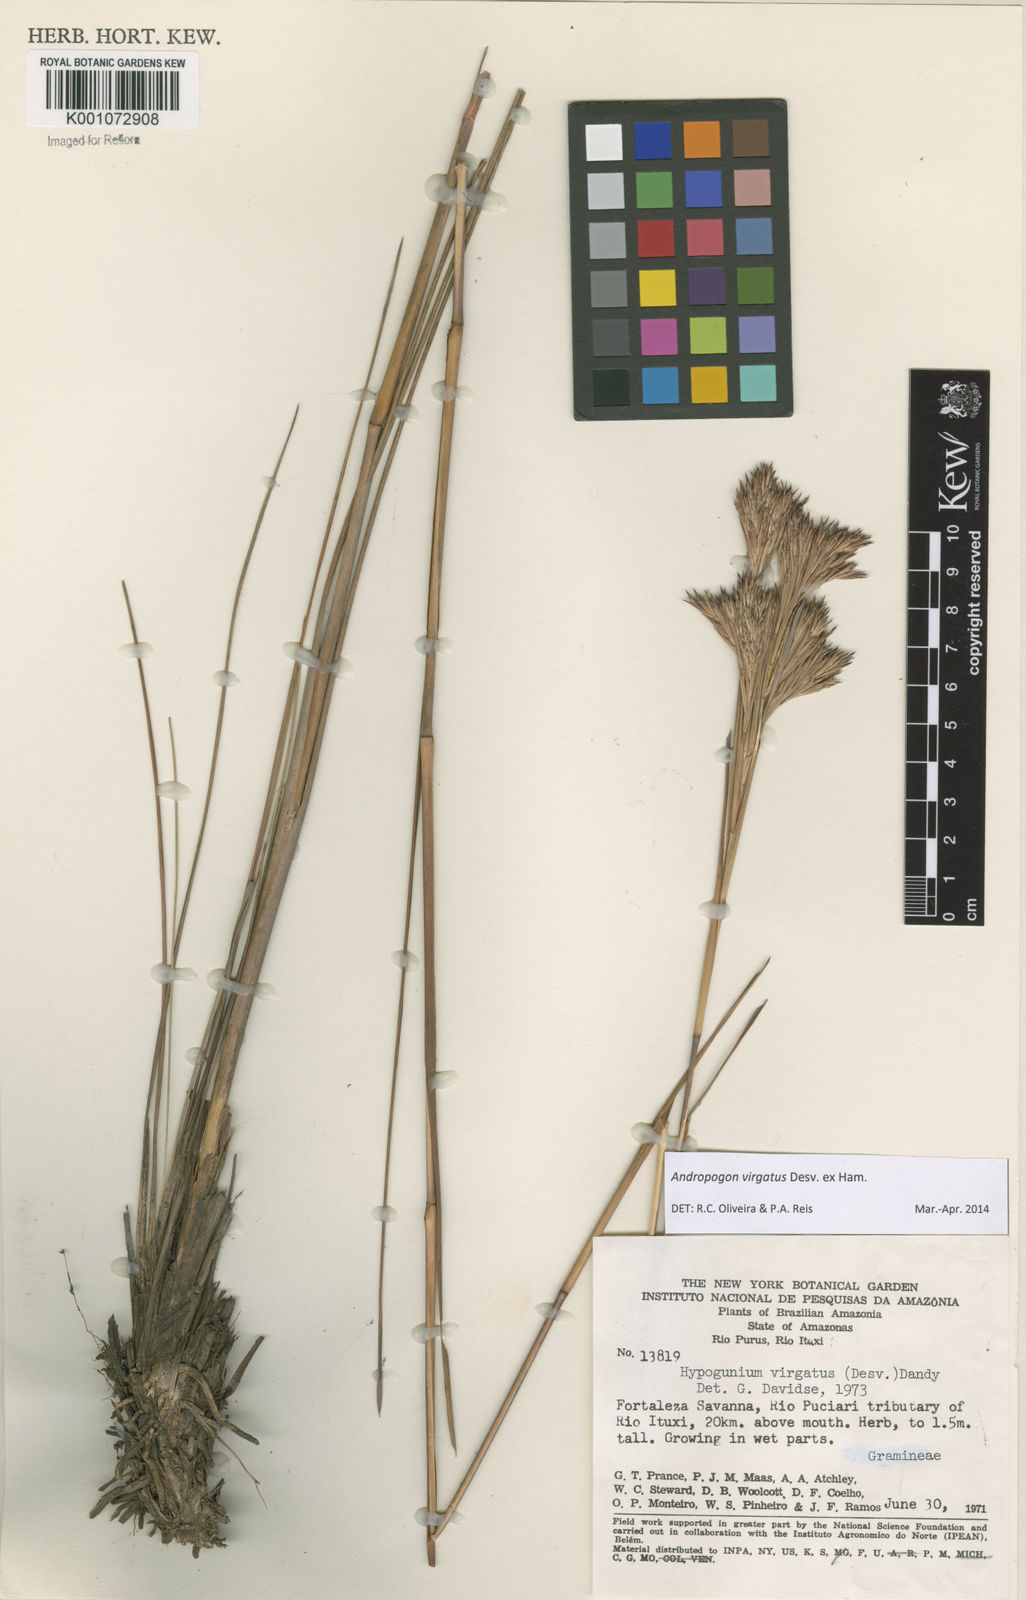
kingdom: Plantae
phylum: Tracheophyta
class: Liliopsida
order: Poales
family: Poaceae
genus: Andropogon
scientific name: Andropogon virgatus
